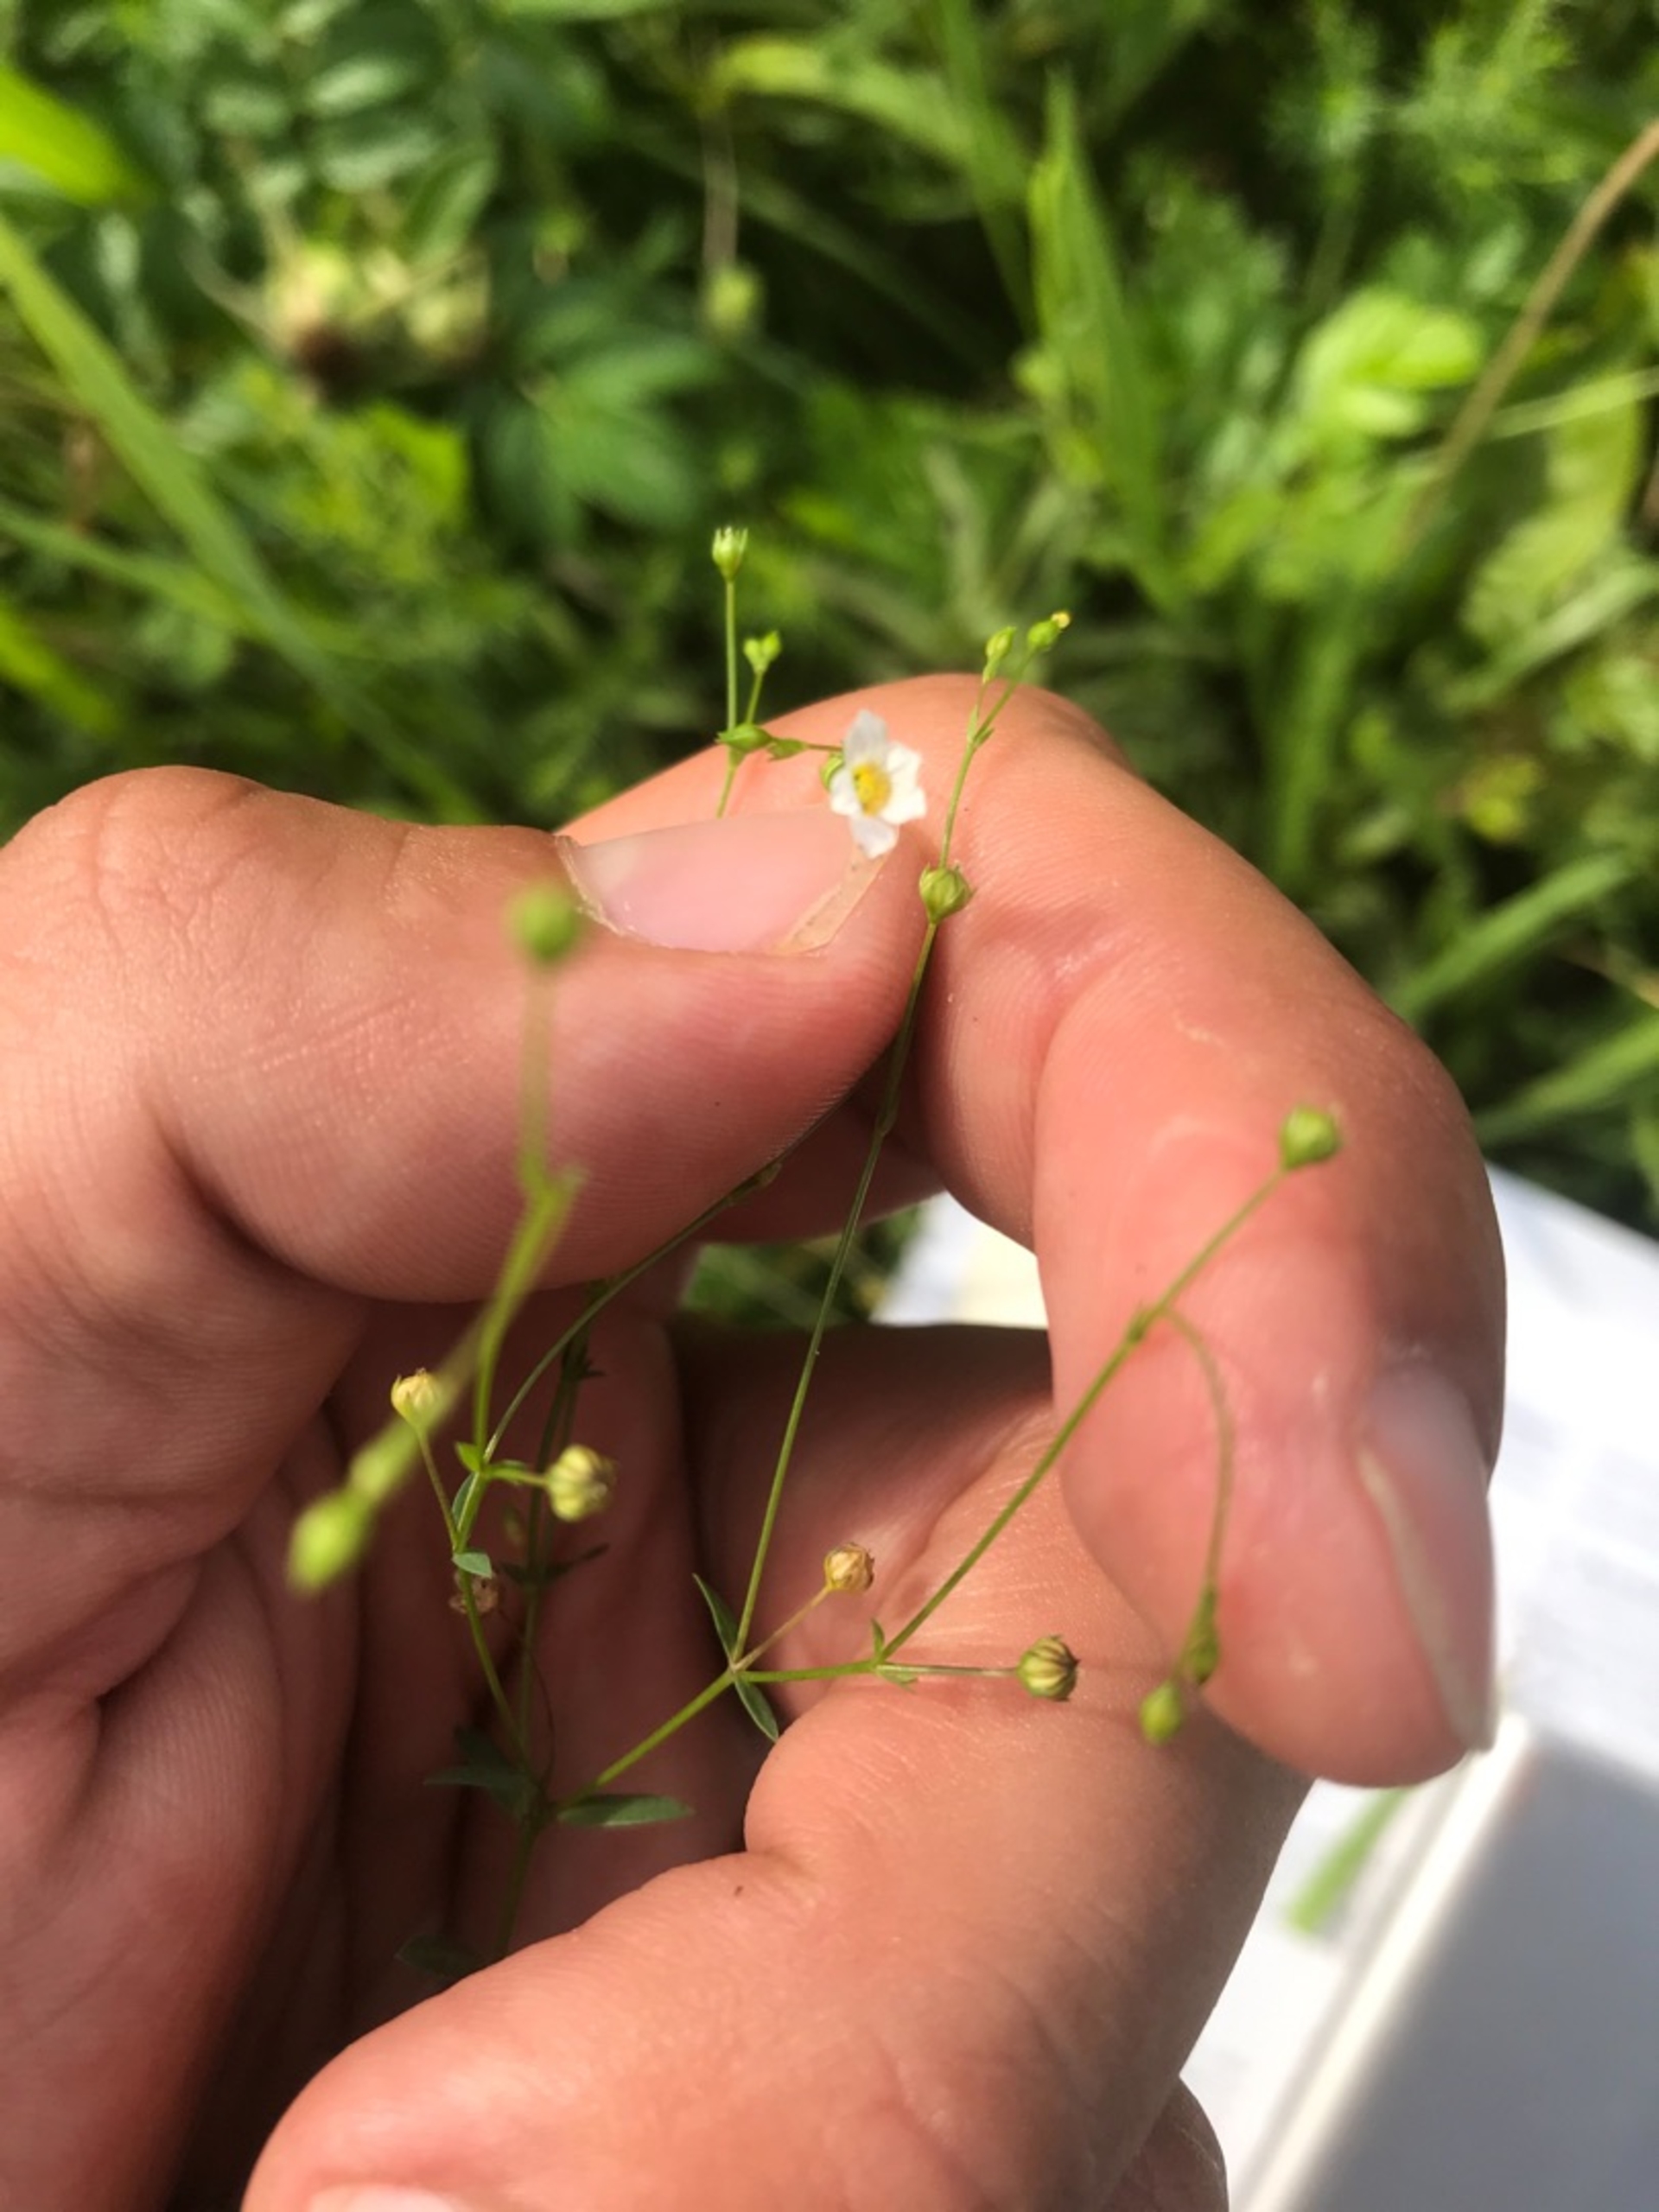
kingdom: Plantae
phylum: Tracheophyta
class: Magnoliopsida
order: Malpighiales
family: Linaceae
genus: Linum
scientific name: Linum catharticum
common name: Vild hør
